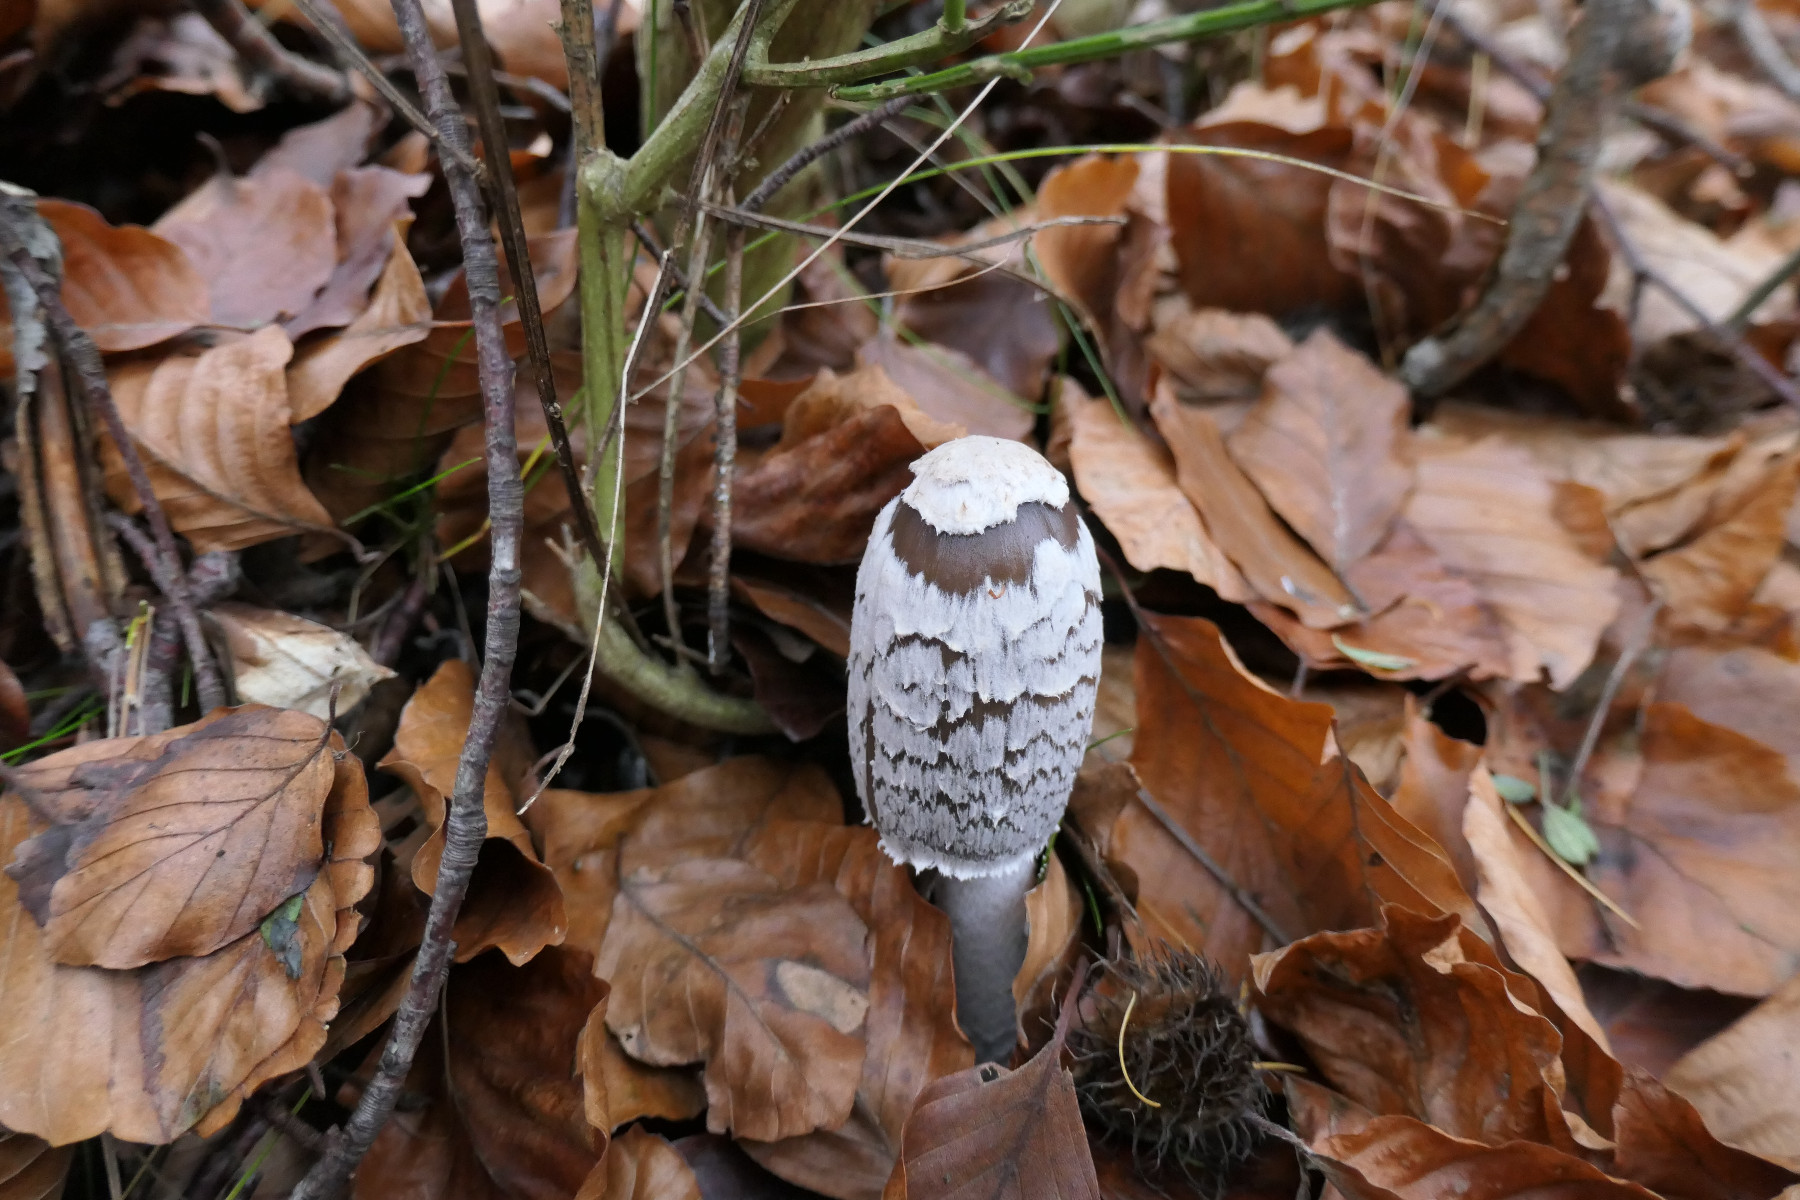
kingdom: Fungi
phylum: Basidiomycota
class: Agaricomycetes
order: Agaricales
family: Psathyrellaceae
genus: Coprinopsis
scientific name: Coprinopsis picacea
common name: skade-blækhat
